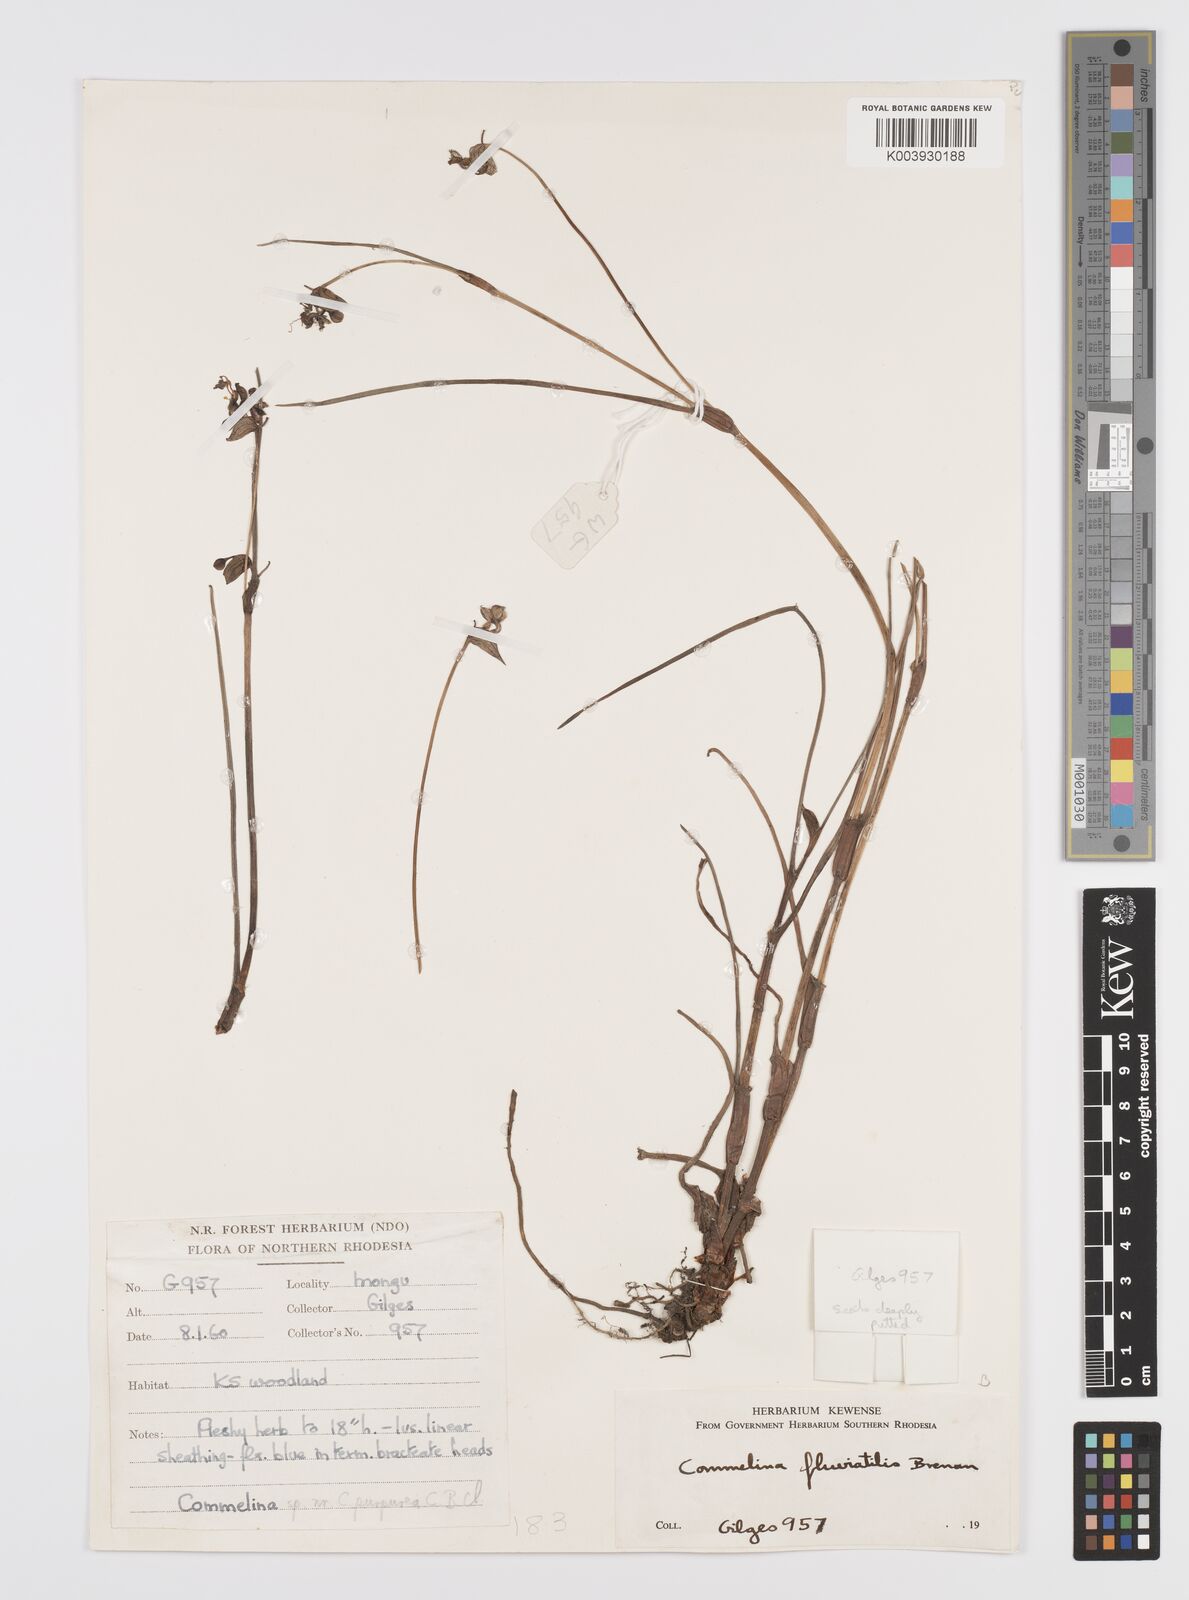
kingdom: Plantae
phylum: Tracheophyta
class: Liliopsida
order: Commelinales
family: Commelinaceae
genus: Commelina
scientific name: Commelina fluviatilis
